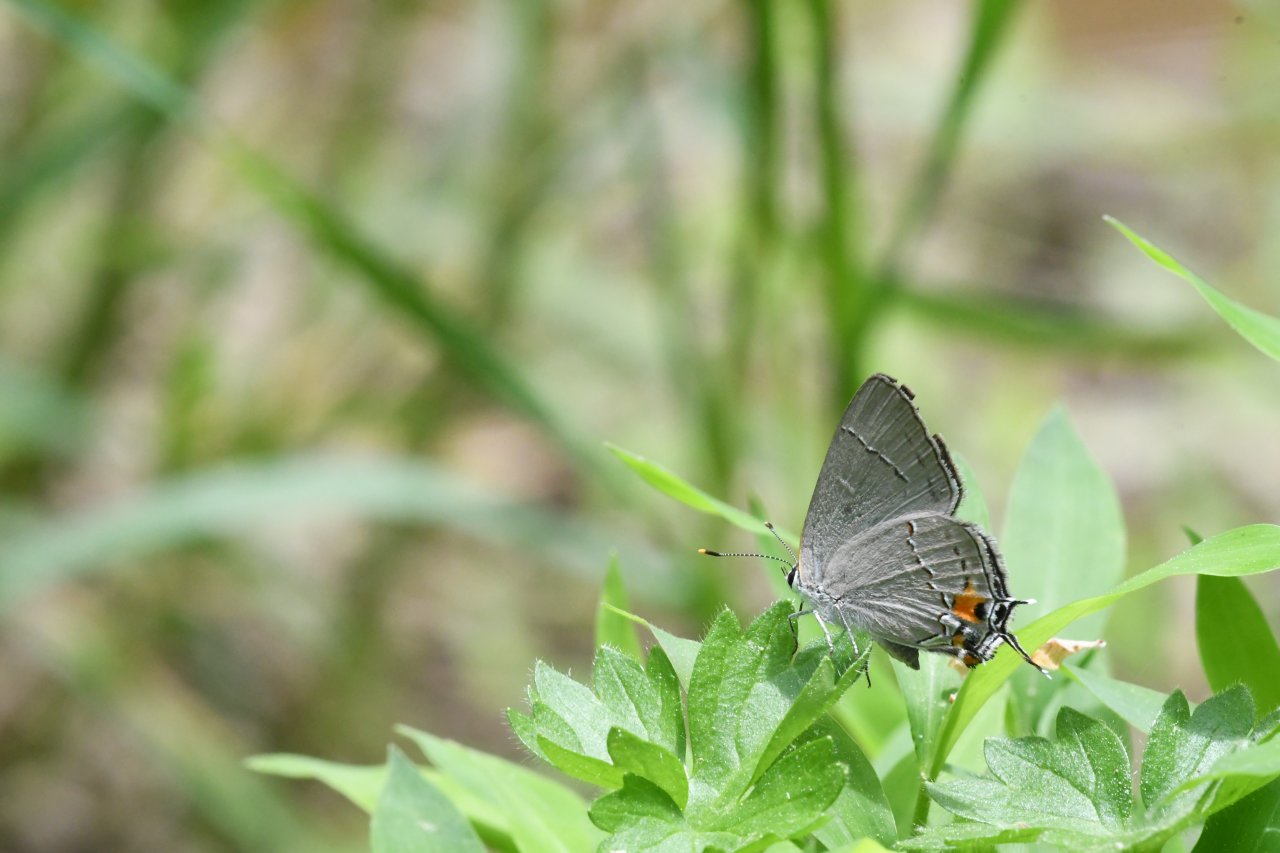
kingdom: Animalia
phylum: Arthropoda
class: Insecta
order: Lepidoptera
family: Lycaenidae
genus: Strymon
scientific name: Strymon melinus
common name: Gray Hairstreak
